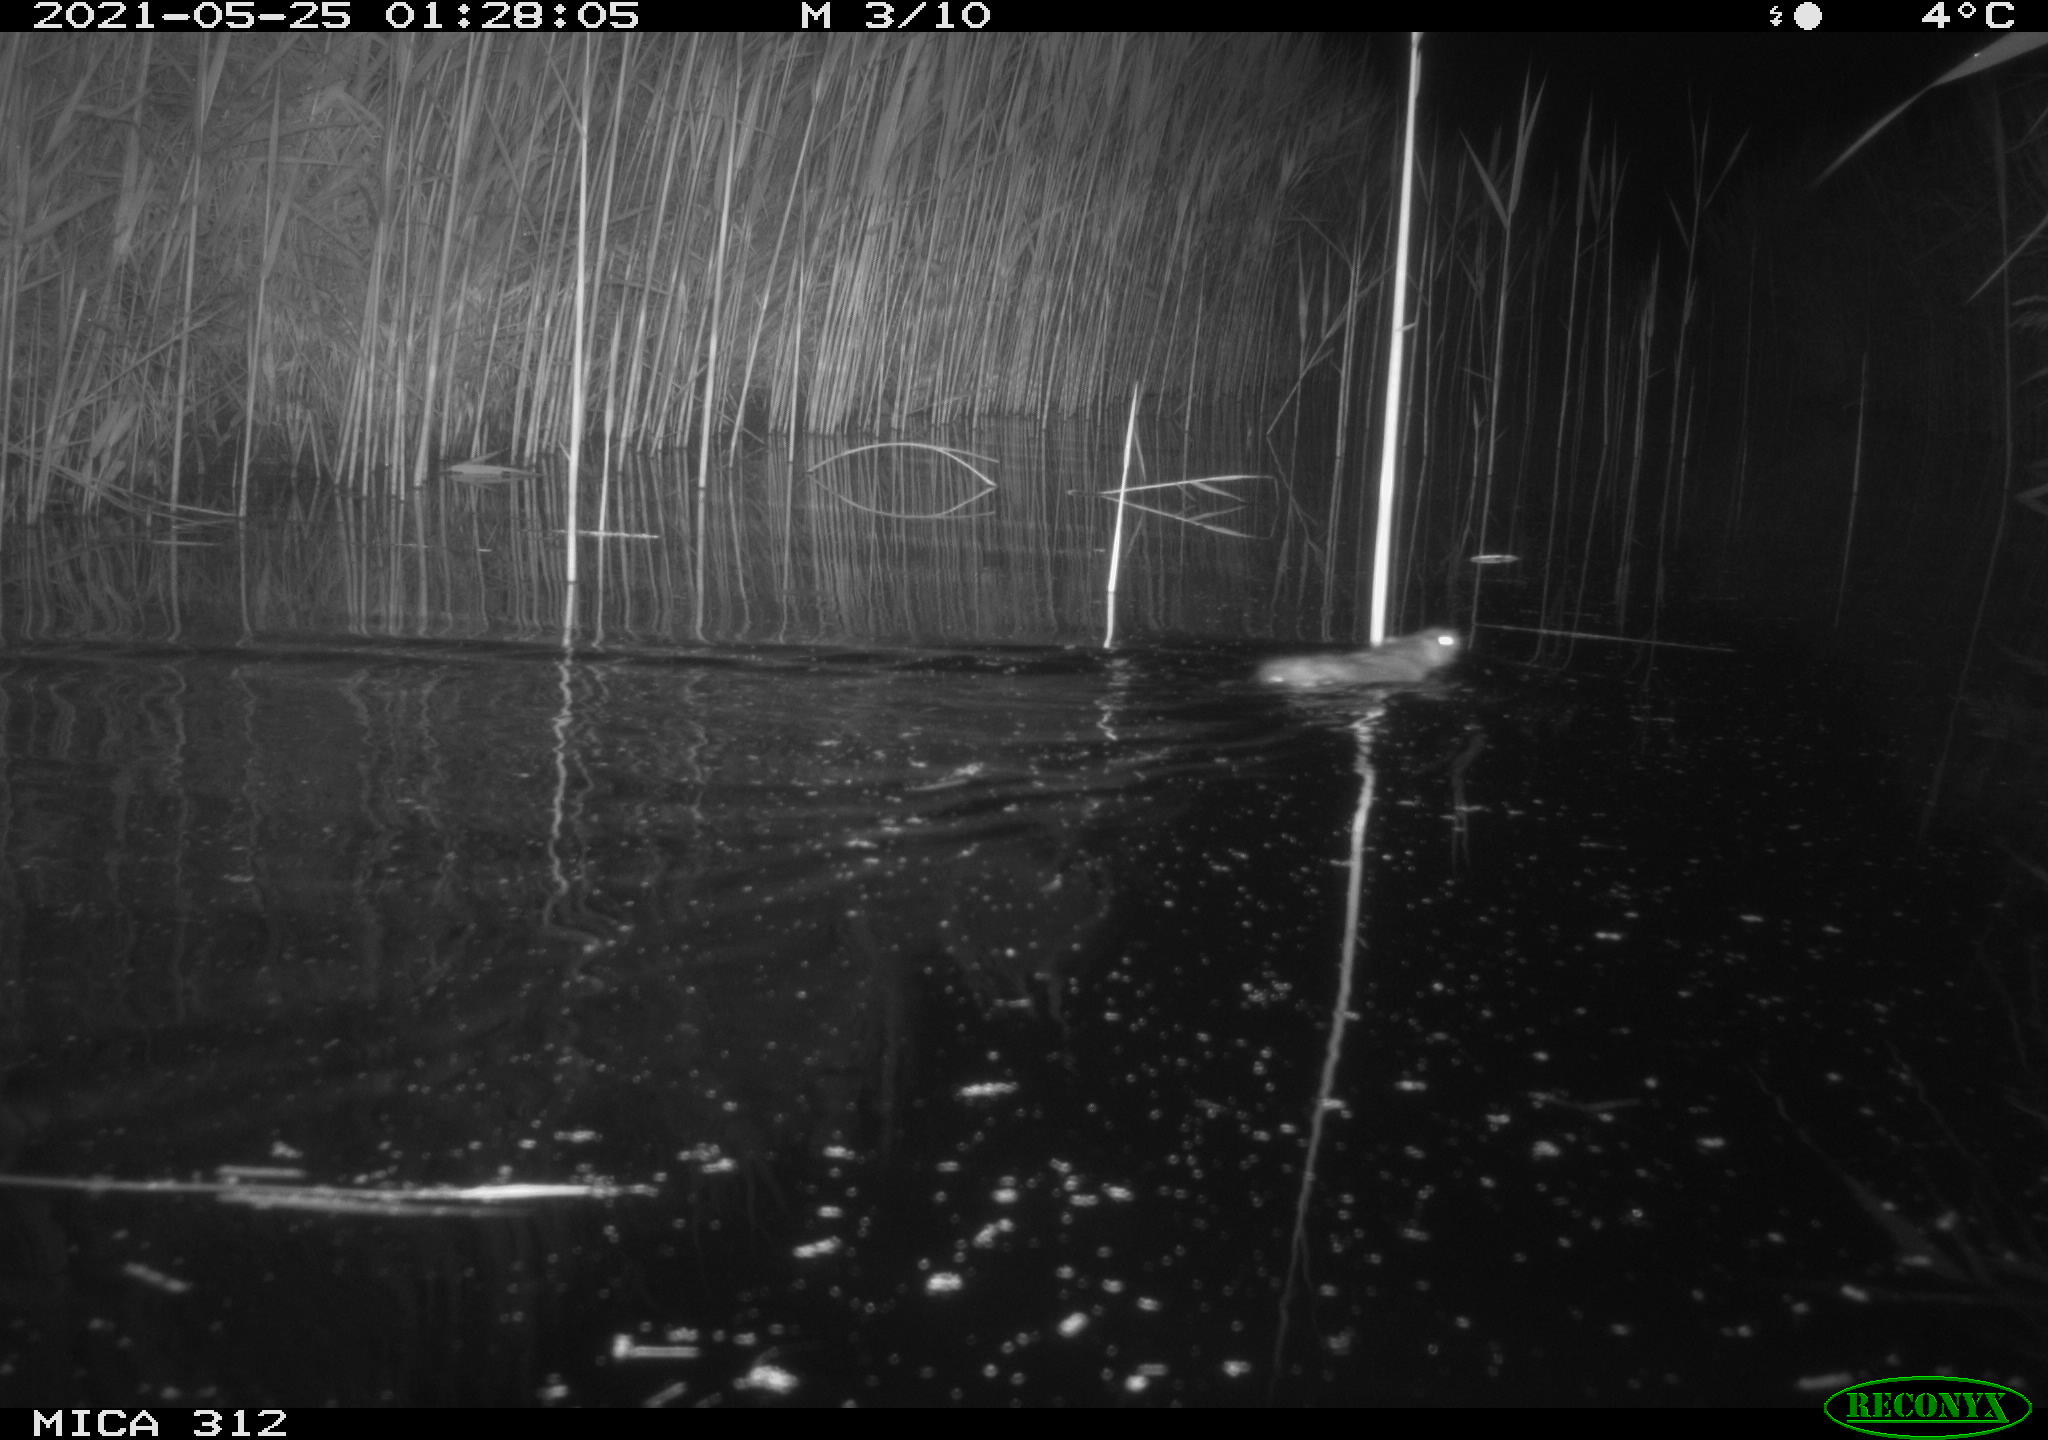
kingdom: Animalia
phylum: Chordata
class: Aves
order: Gruiformes
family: Rallidae
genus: Fulica
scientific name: Fulica atra
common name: Eurasian coot
